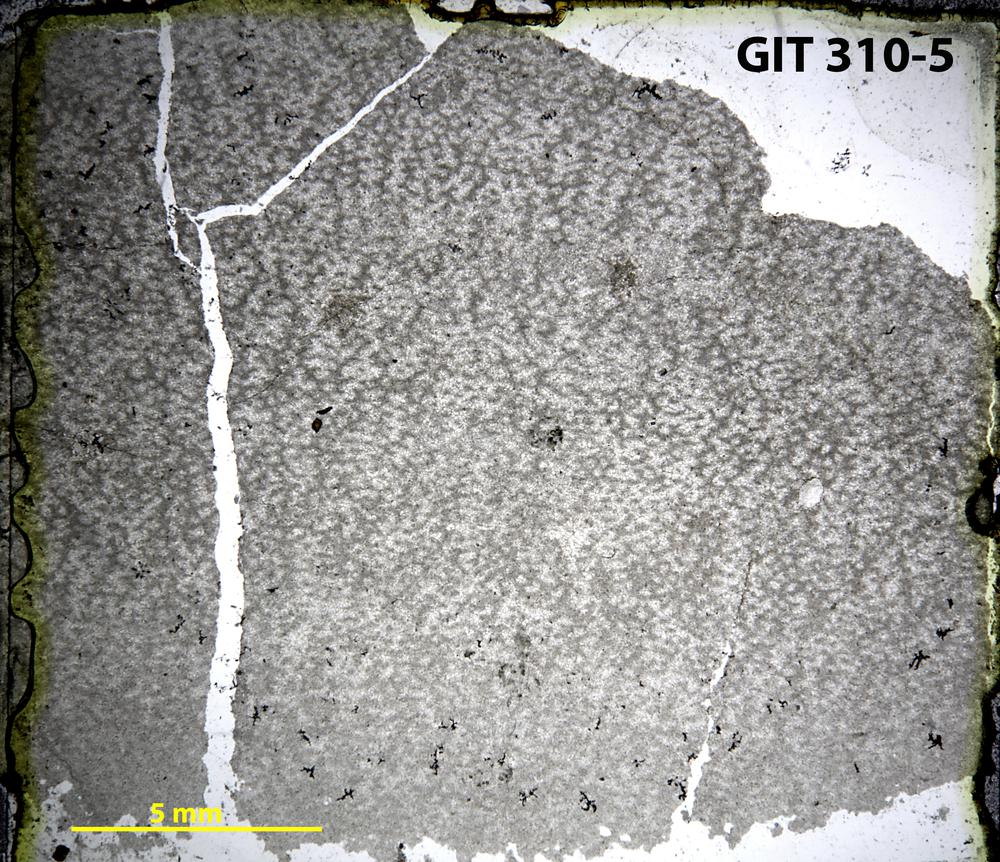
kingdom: Animalia
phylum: Porifera
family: Ecclimadictyidae
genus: Ecclimadictyon
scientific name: Ecclimadictyon
